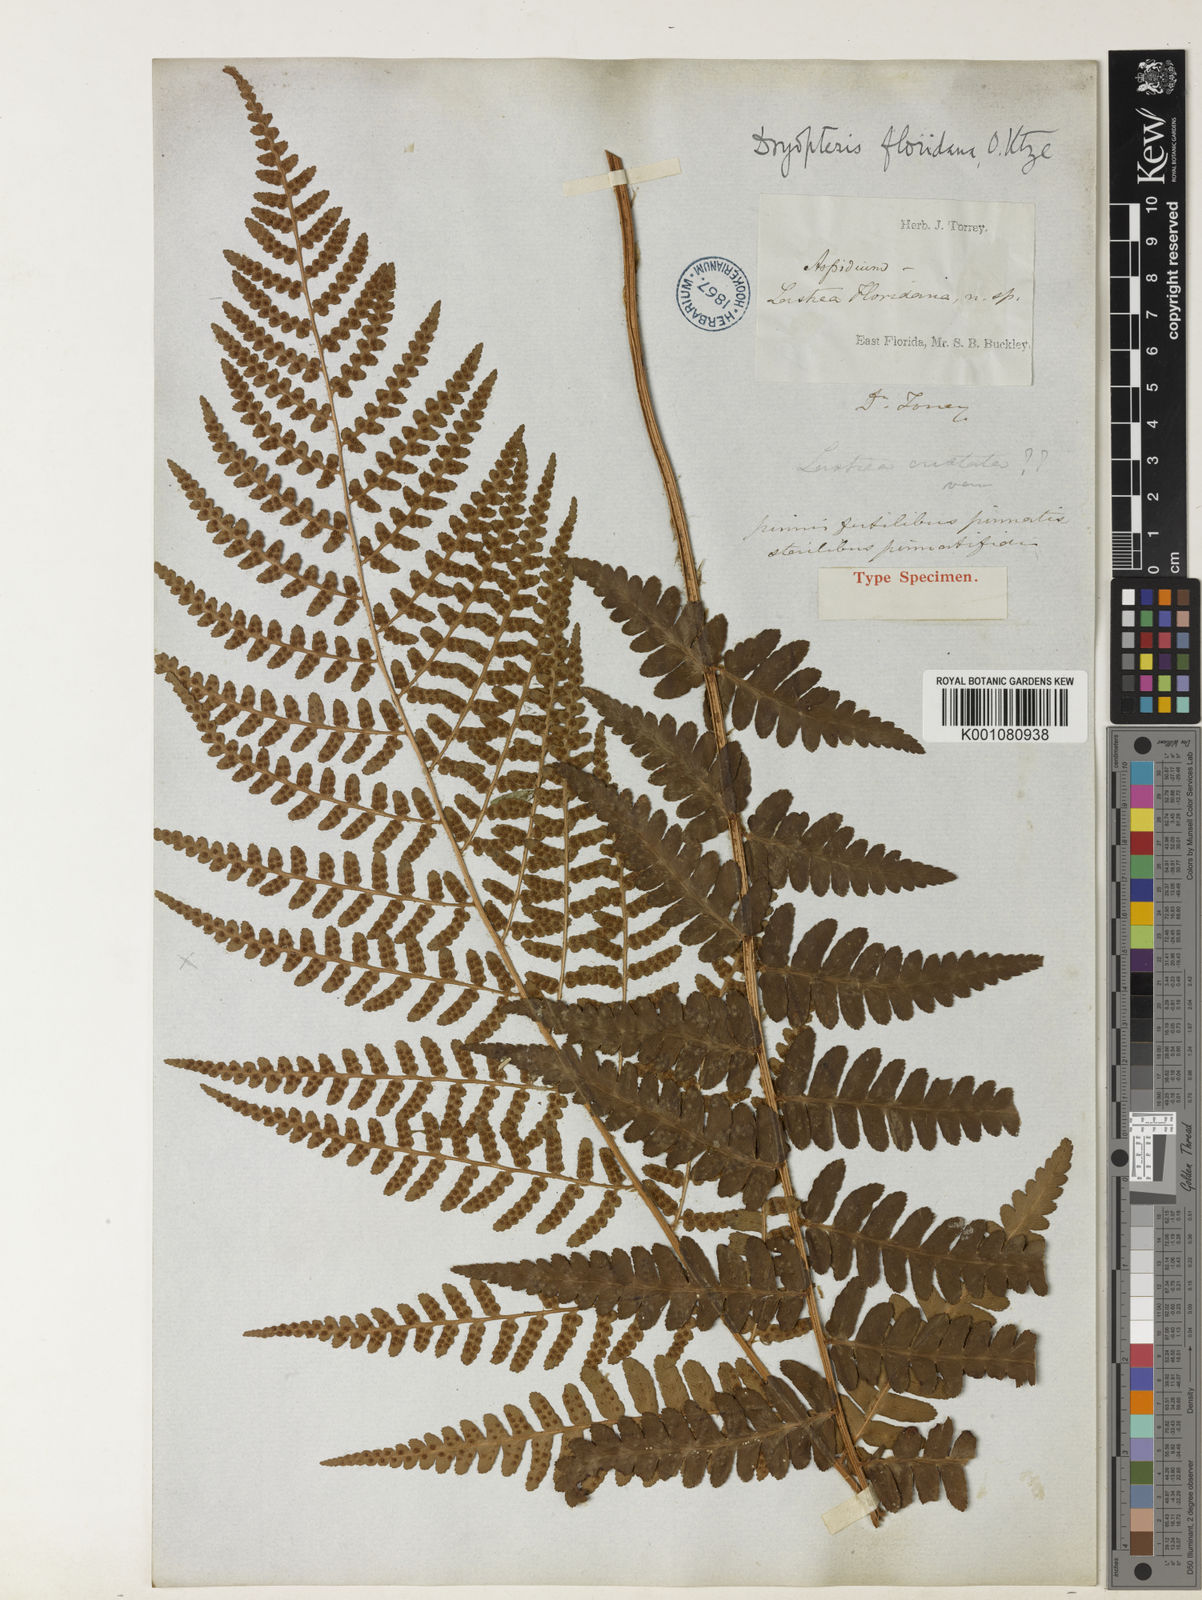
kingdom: Plantae
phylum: Tracheophyta
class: Polypodiopsida
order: Polypodiales
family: Dryopteridaceae
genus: Dryopteris
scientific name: Dryopteris ludoviciana
